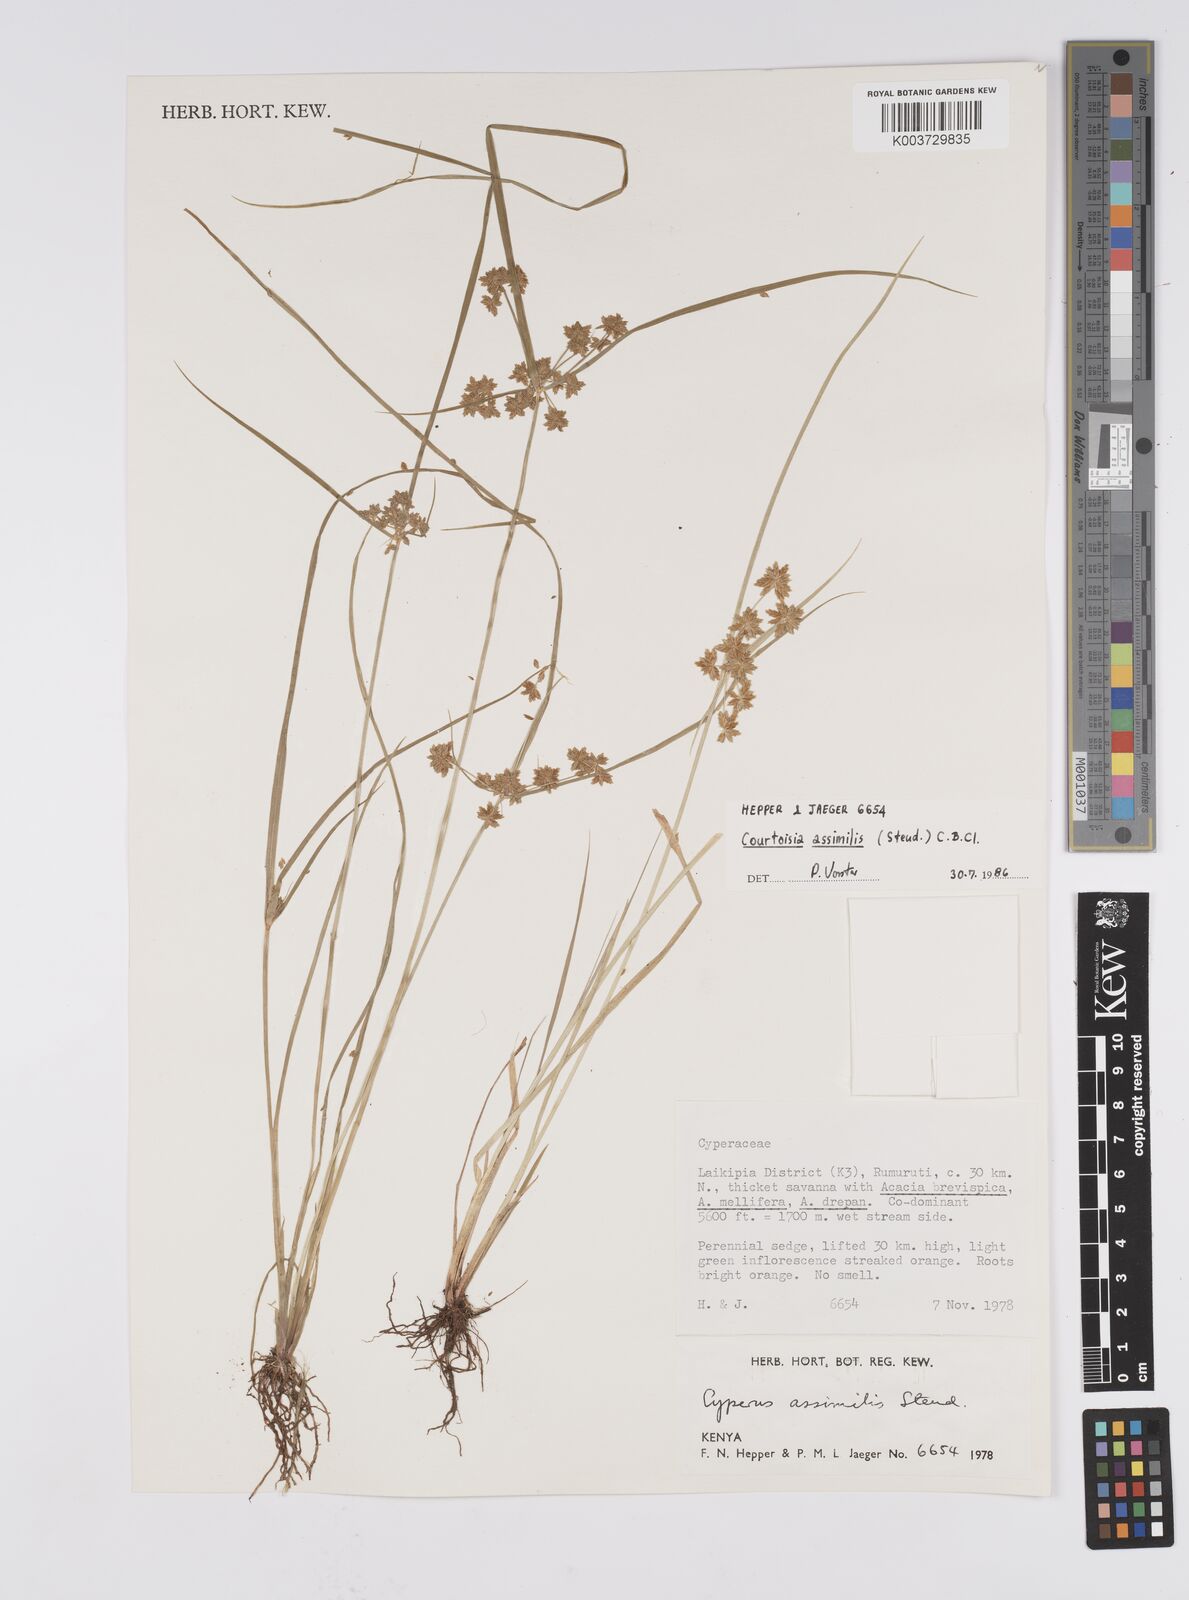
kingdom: Plantae
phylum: Tracheophyta
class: Liliopsida
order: Poales
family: Cyperaceae
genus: Cyperus
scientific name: Cyperus assimilis
